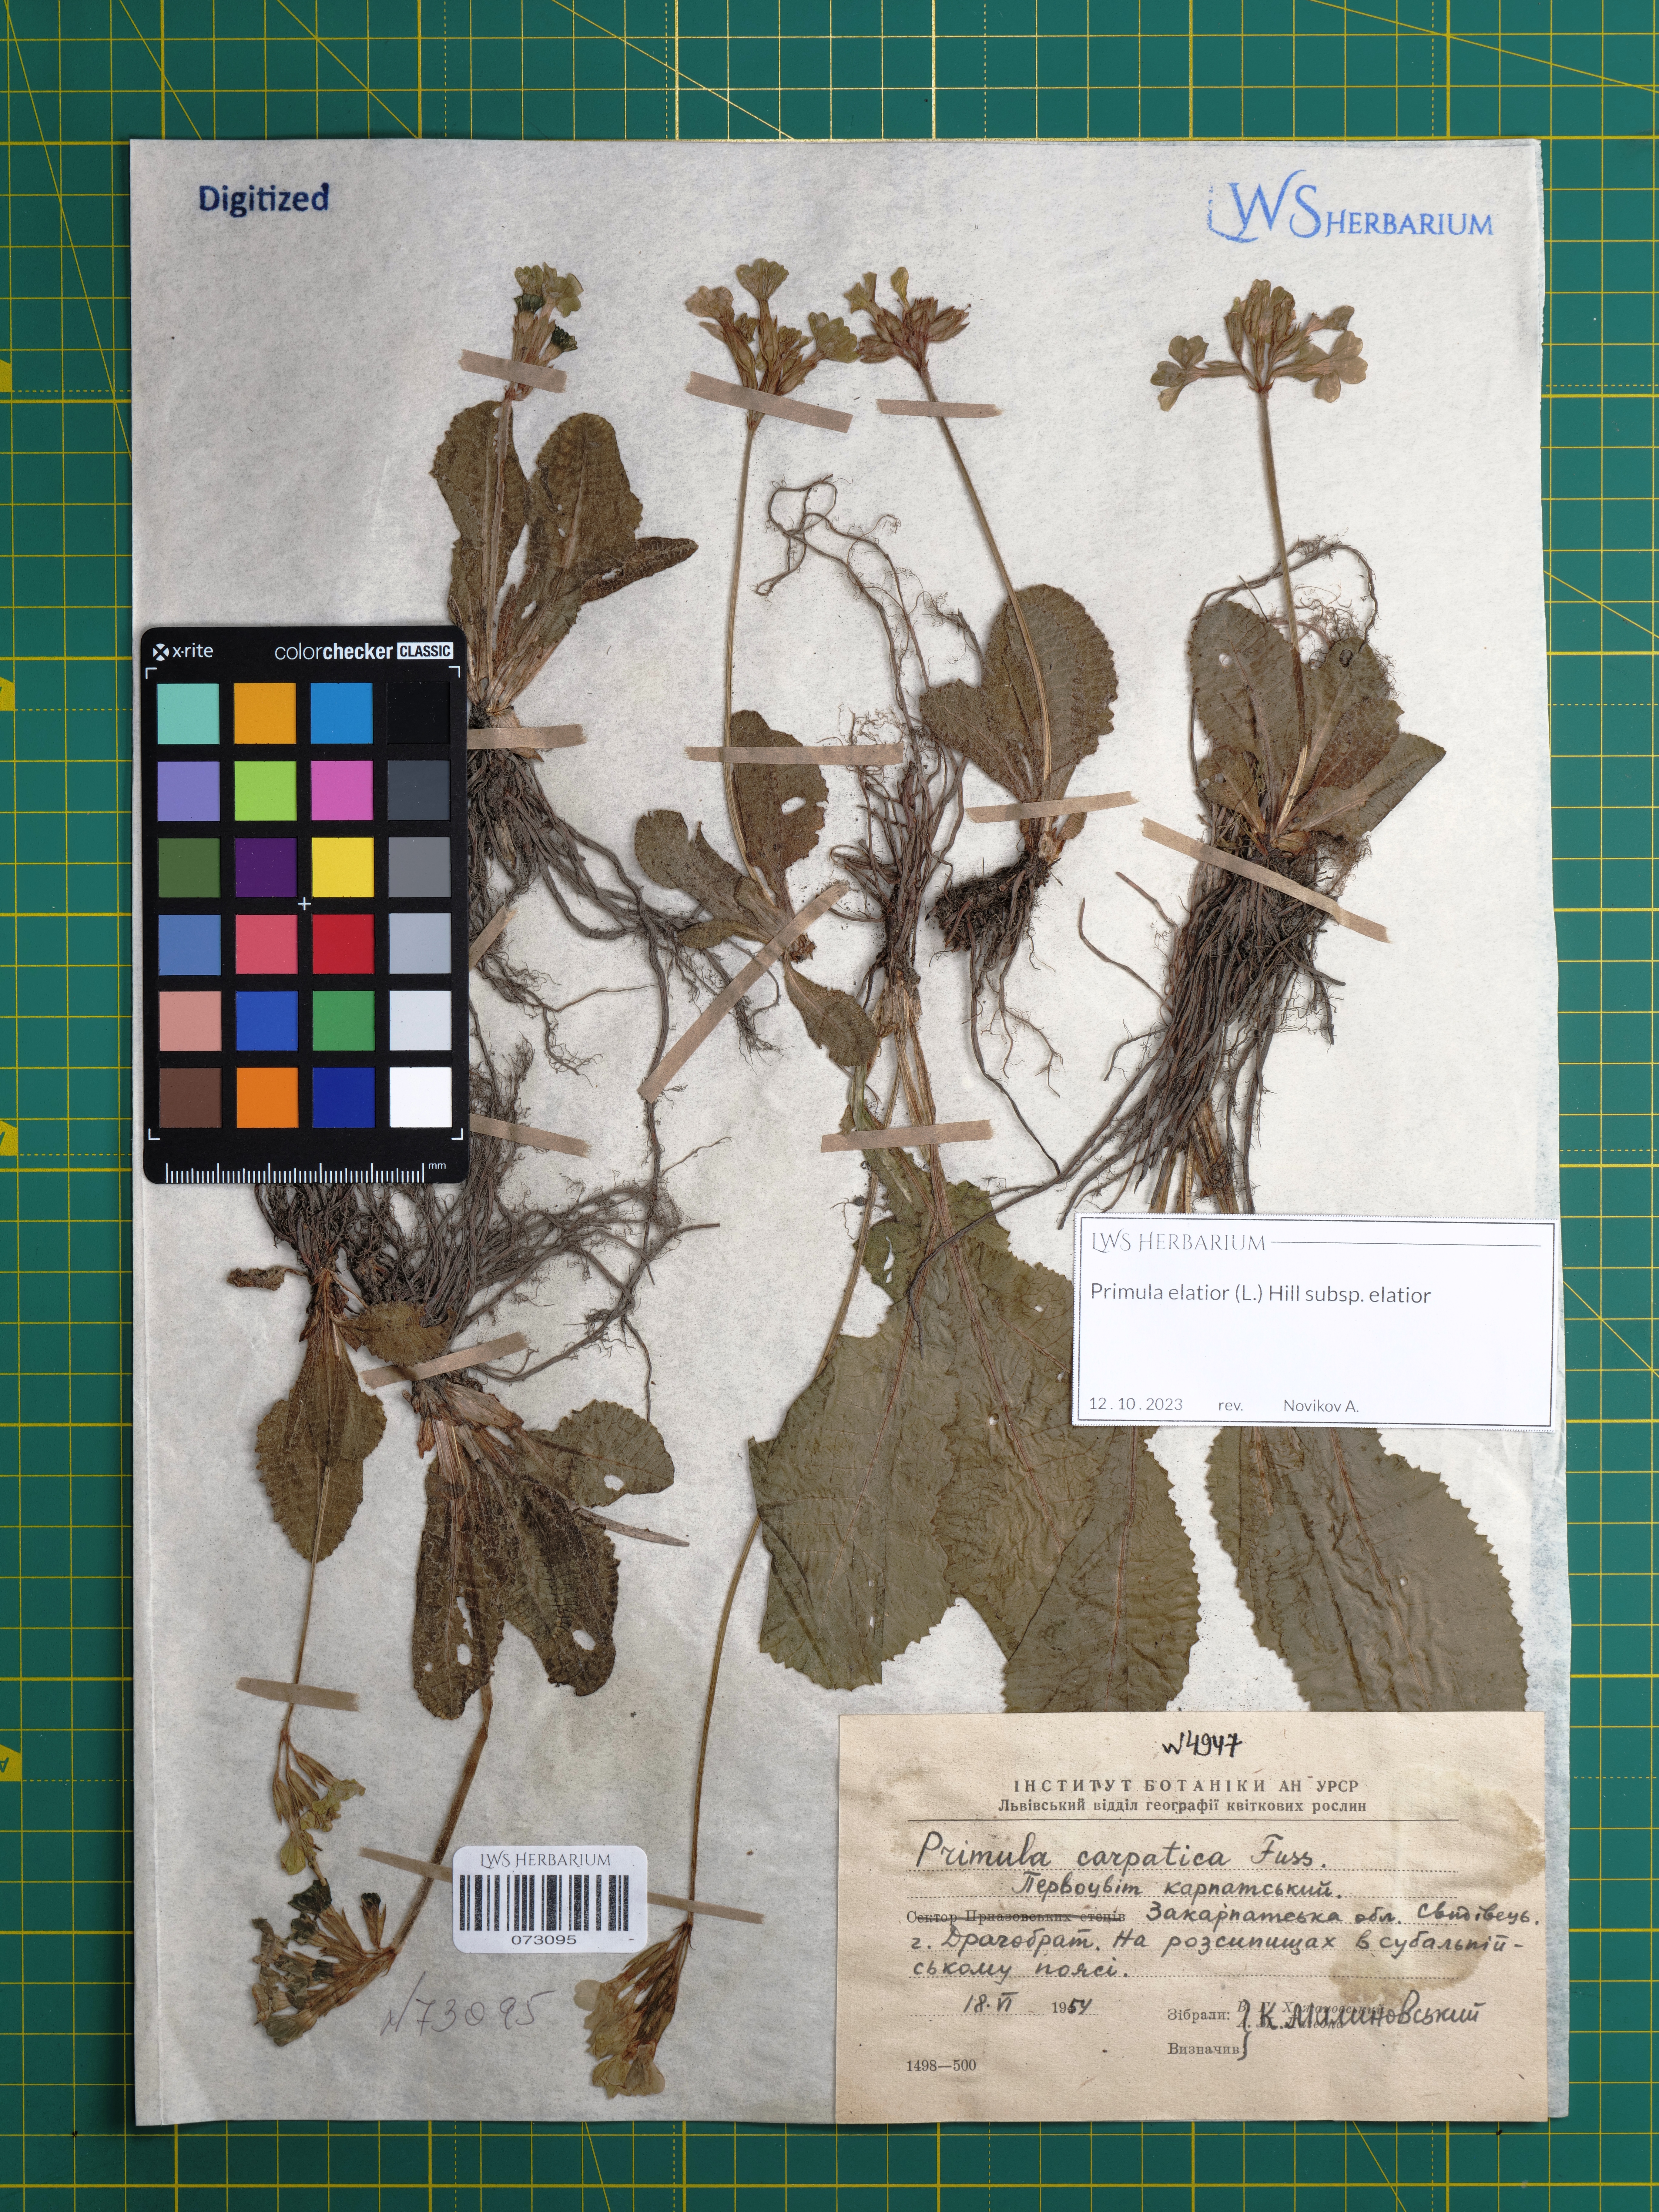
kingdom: Plantae
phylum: Tracheophyta
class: Magnoliopsida
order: Ericales
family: Primulaceae
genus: Primula
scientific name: Primula elatior
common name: Oxlip
